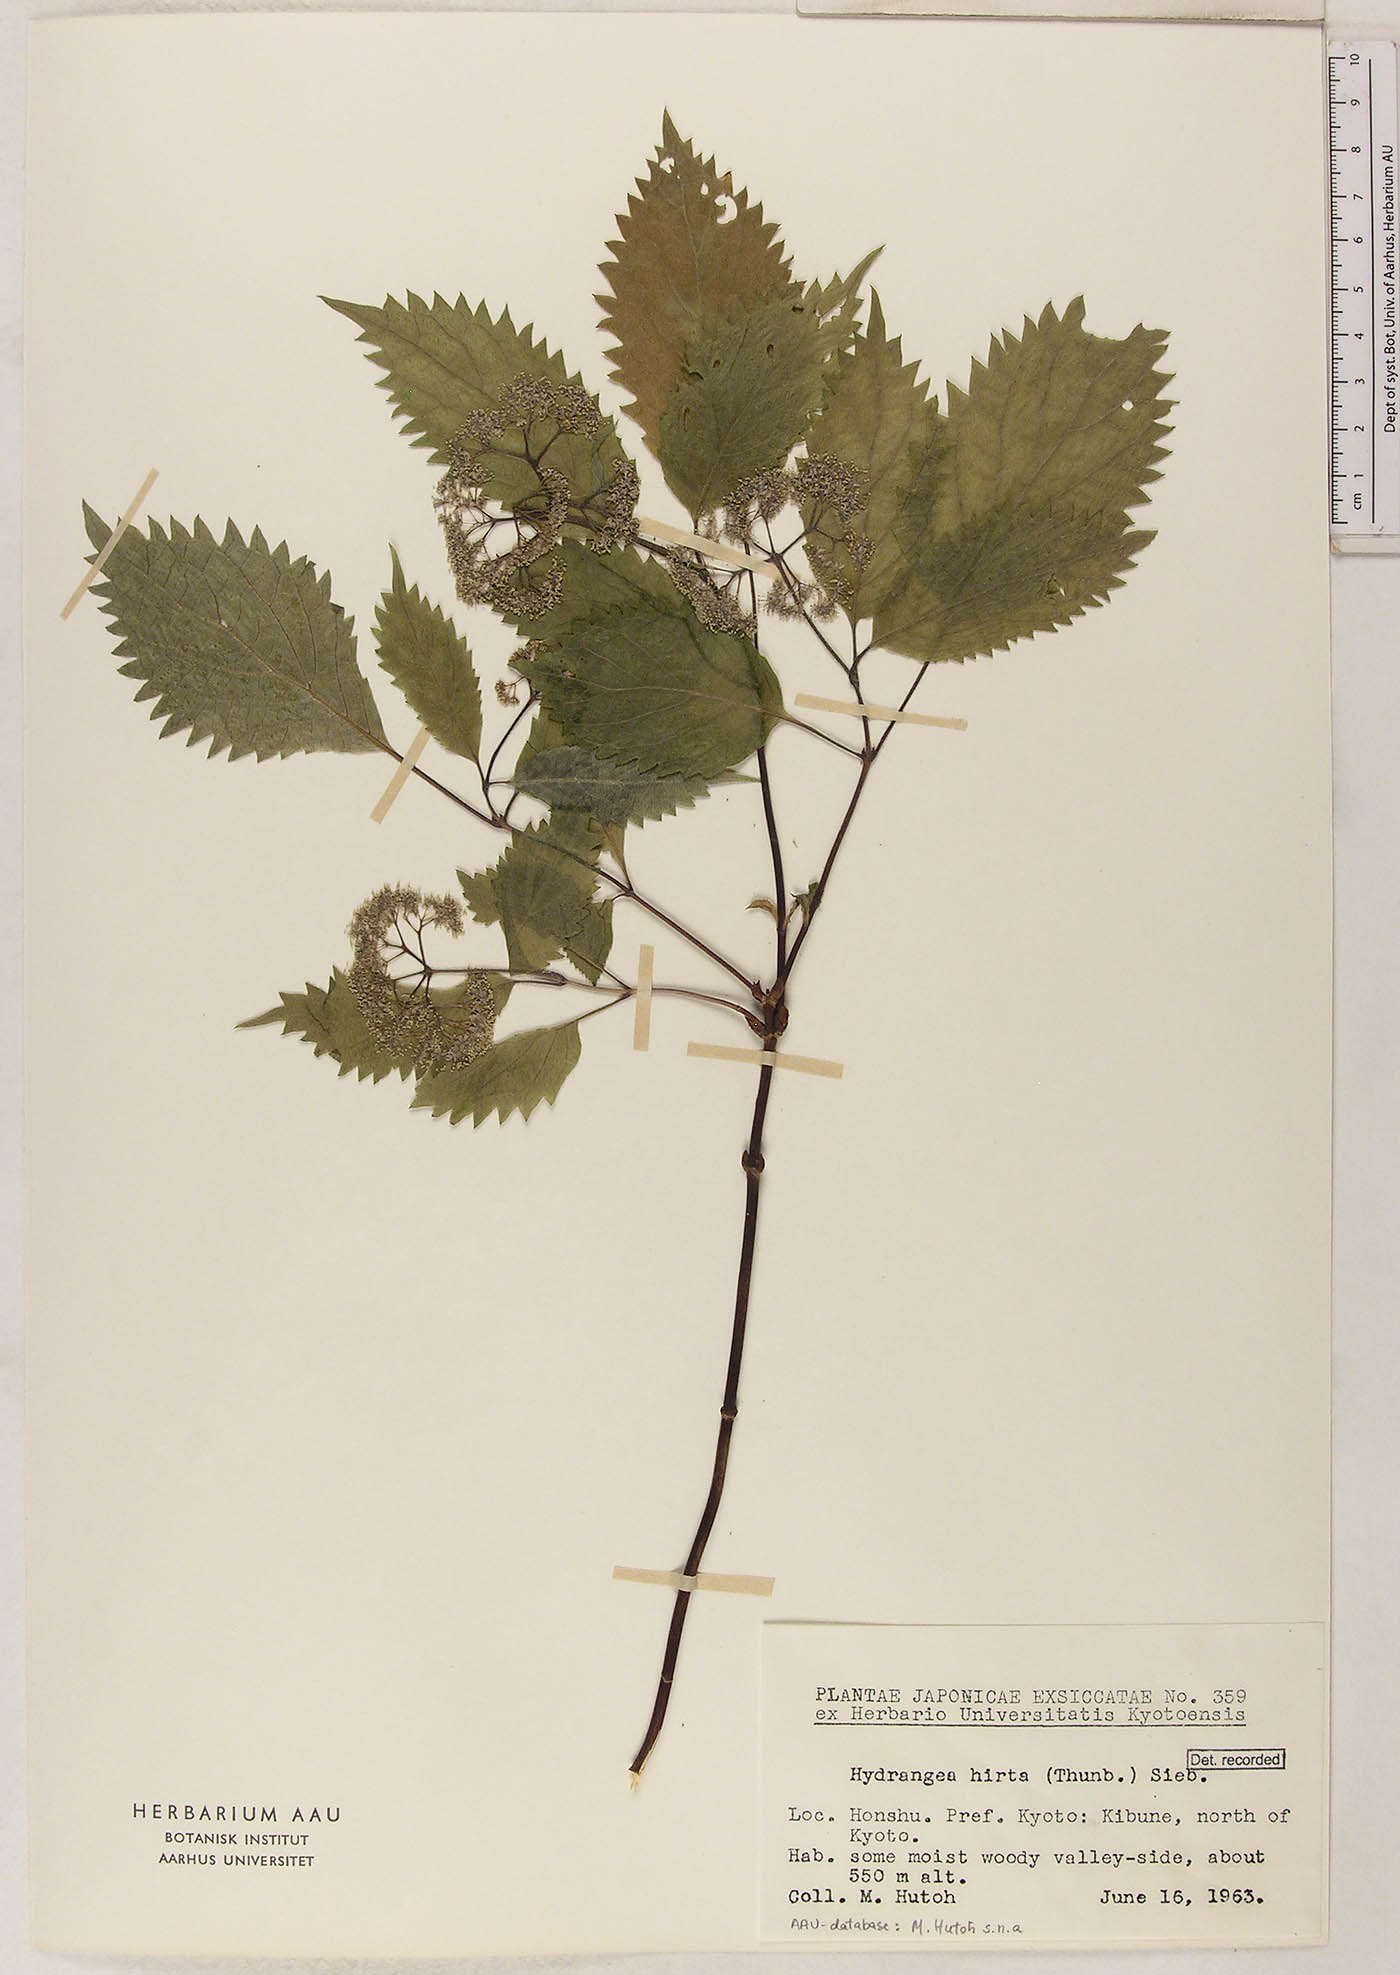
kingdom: Plantae
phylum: Tracheophyta
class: Magnoliopsida
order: Cornales
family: Hydrangeaceae
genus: Hydrangea
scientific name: Hydrangea hirta
